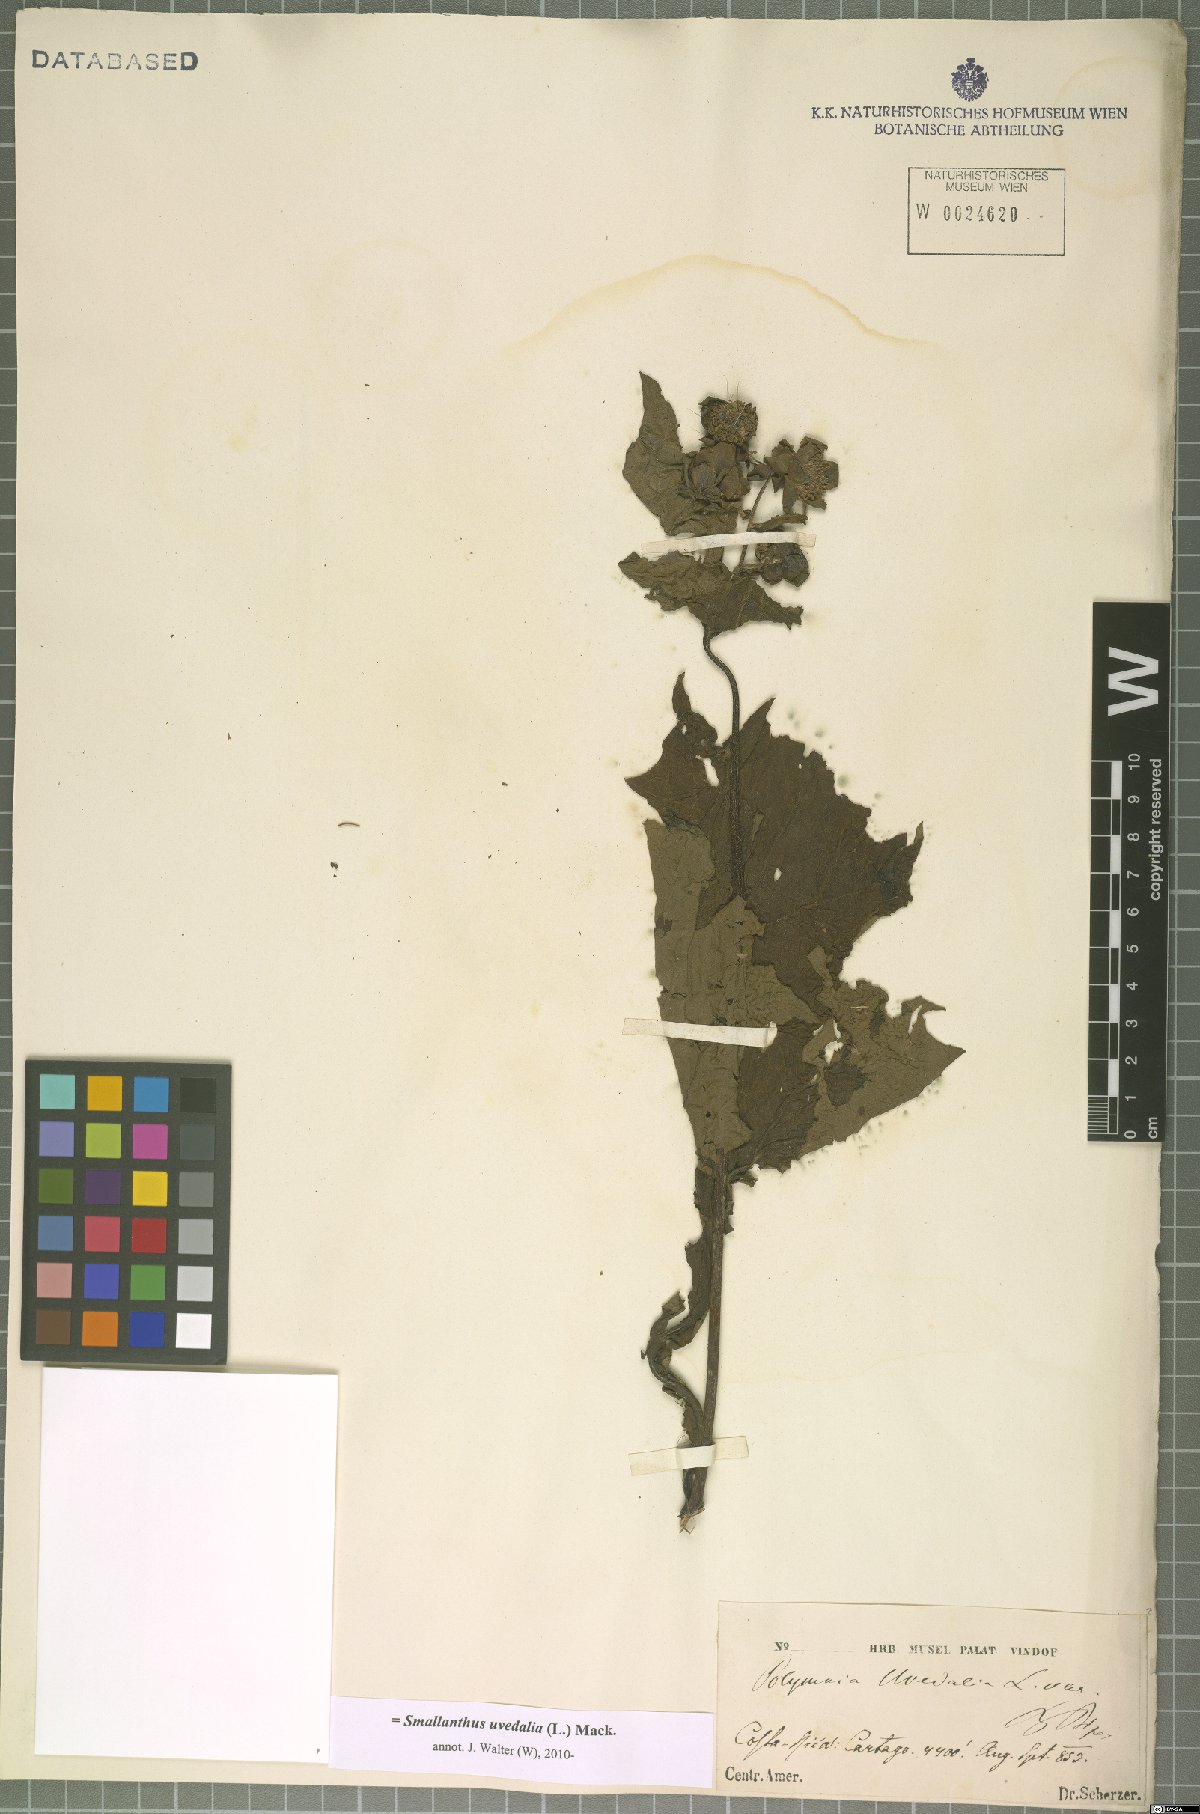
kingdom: Plantae
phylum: Tracheophyta
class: Magnoliopsida
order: Asterales
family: Asteraceae
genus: Smallanthus
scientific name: Smallanthus uvedalia
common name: Bear's-foot
